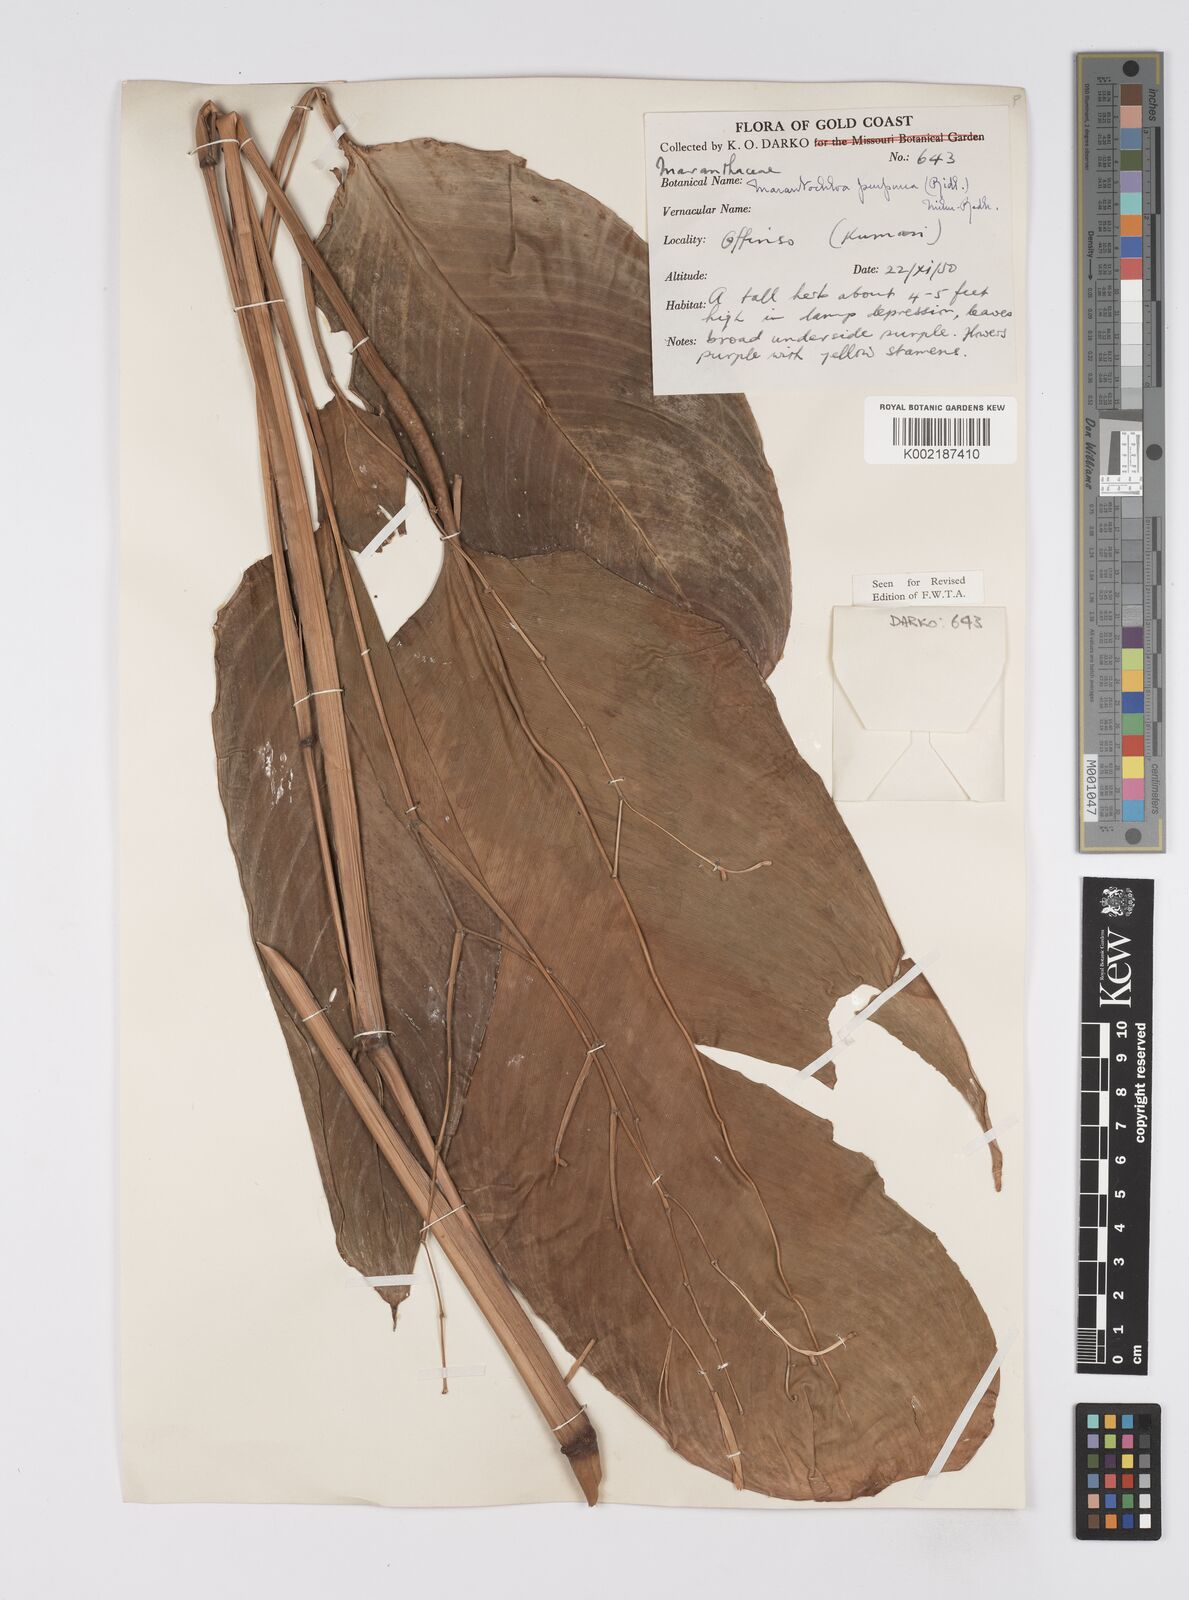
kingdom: Plantae
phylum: Tracheophyta
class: Liliopsida
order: Zingiberales
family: Marantaceae
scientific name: Marantaceae
